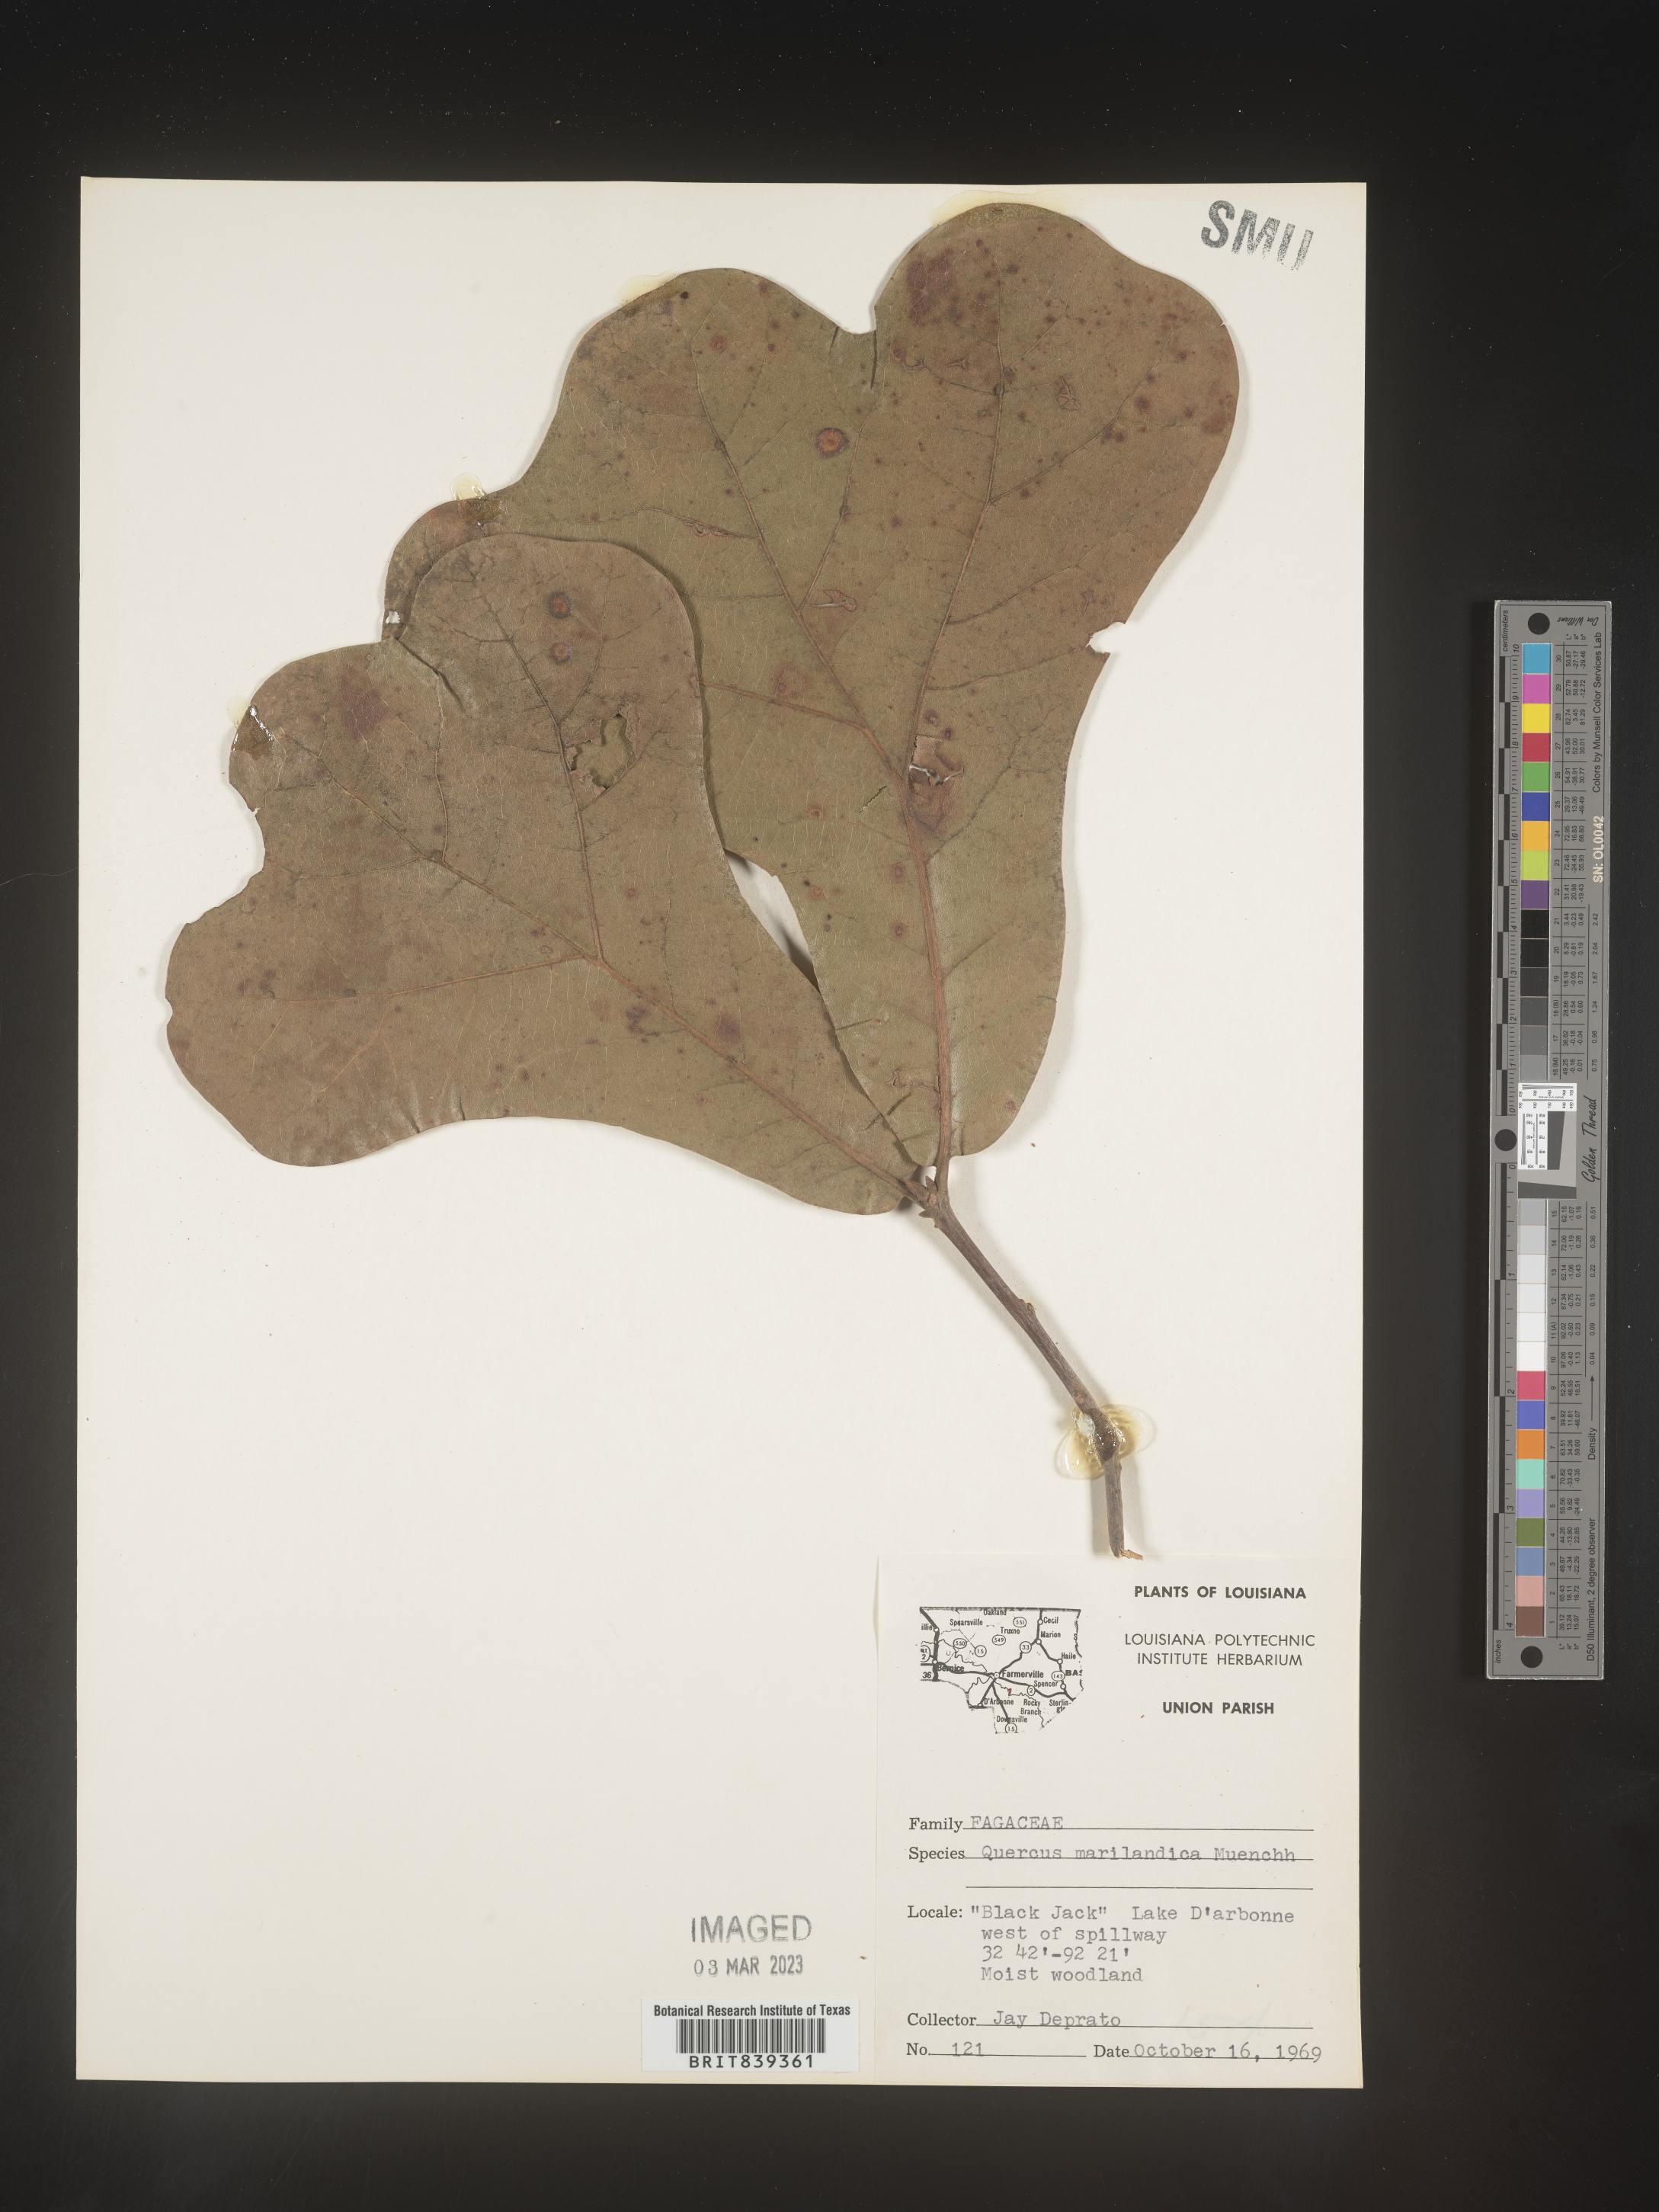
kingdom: Plantae
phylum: Tracheophyta
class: Magnoliopsida
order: Fagales
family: Fagaceae
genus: Quercus
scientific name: Quercus marilandica
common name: Blackjack oak
